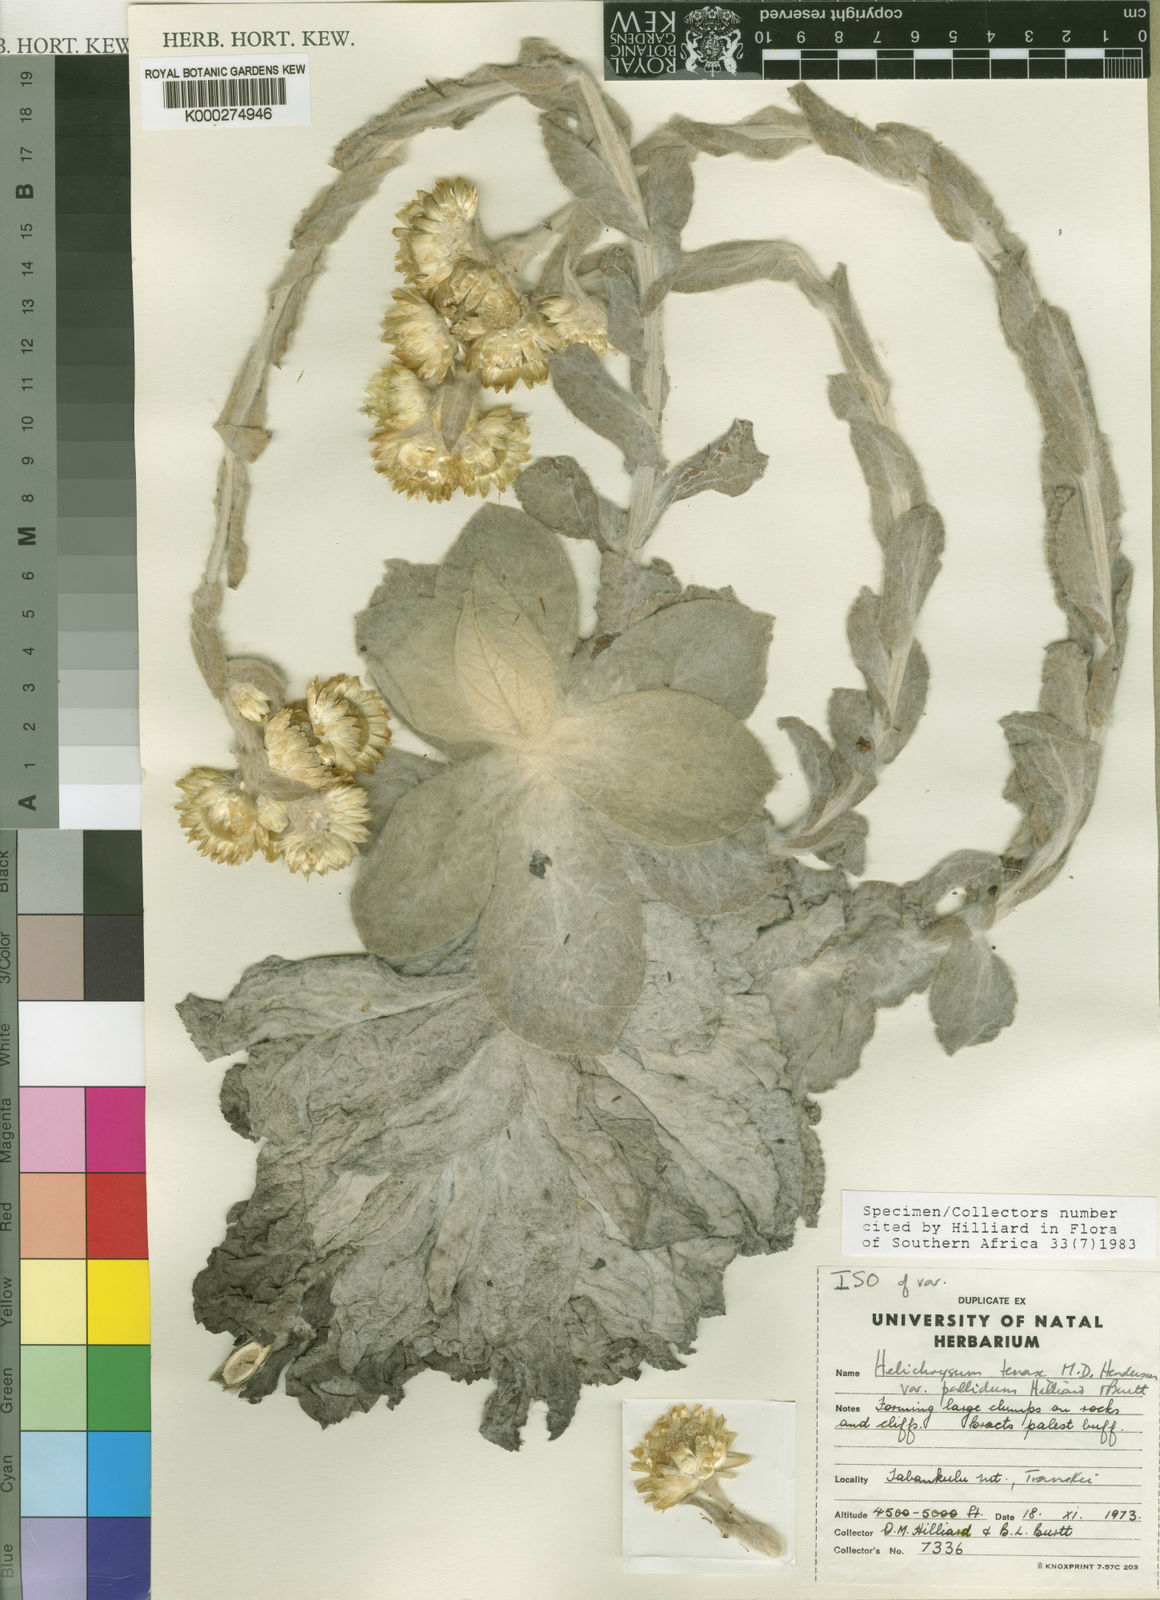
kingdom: Plantae
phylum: Tracheophyta
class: Magnoliopsida
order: Asterales
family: Asteraceae
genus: Helichrysum
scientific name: Helichrysum tenax
